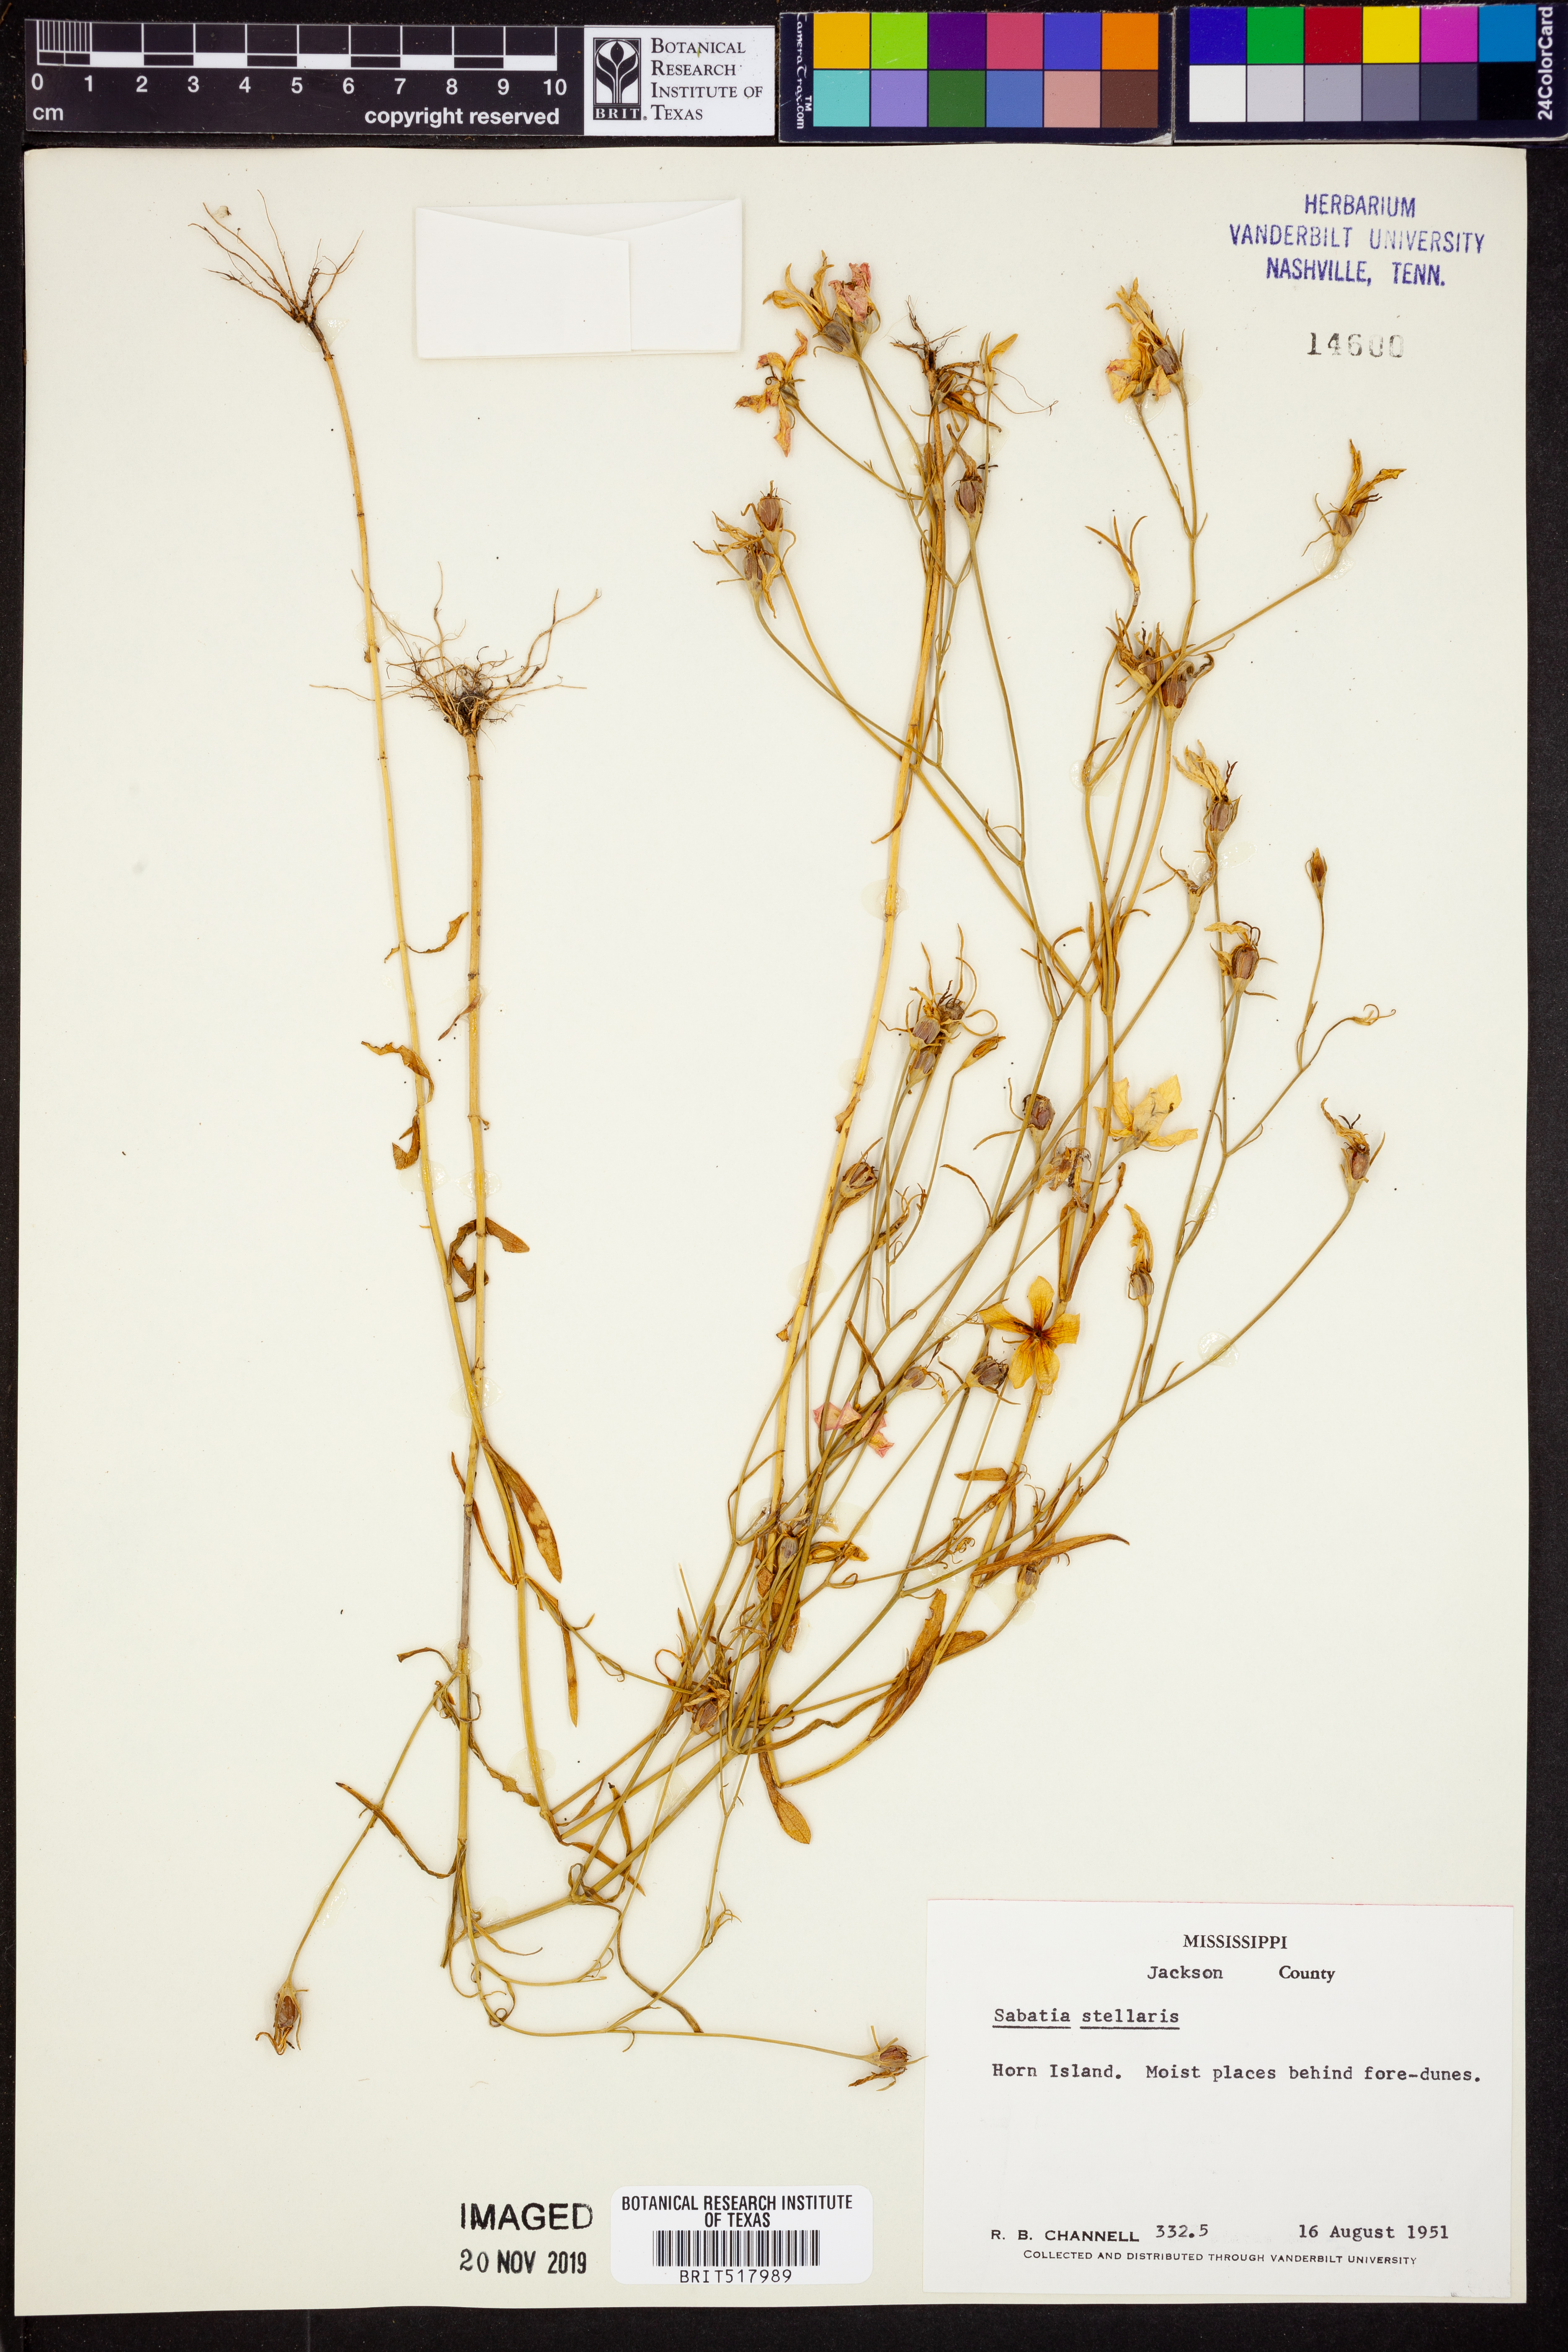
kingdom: Plantae
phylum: Tracheophyta
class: Magnoliopsida
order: Gentianales
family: Gentianaceae
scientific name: Gentianaceae
